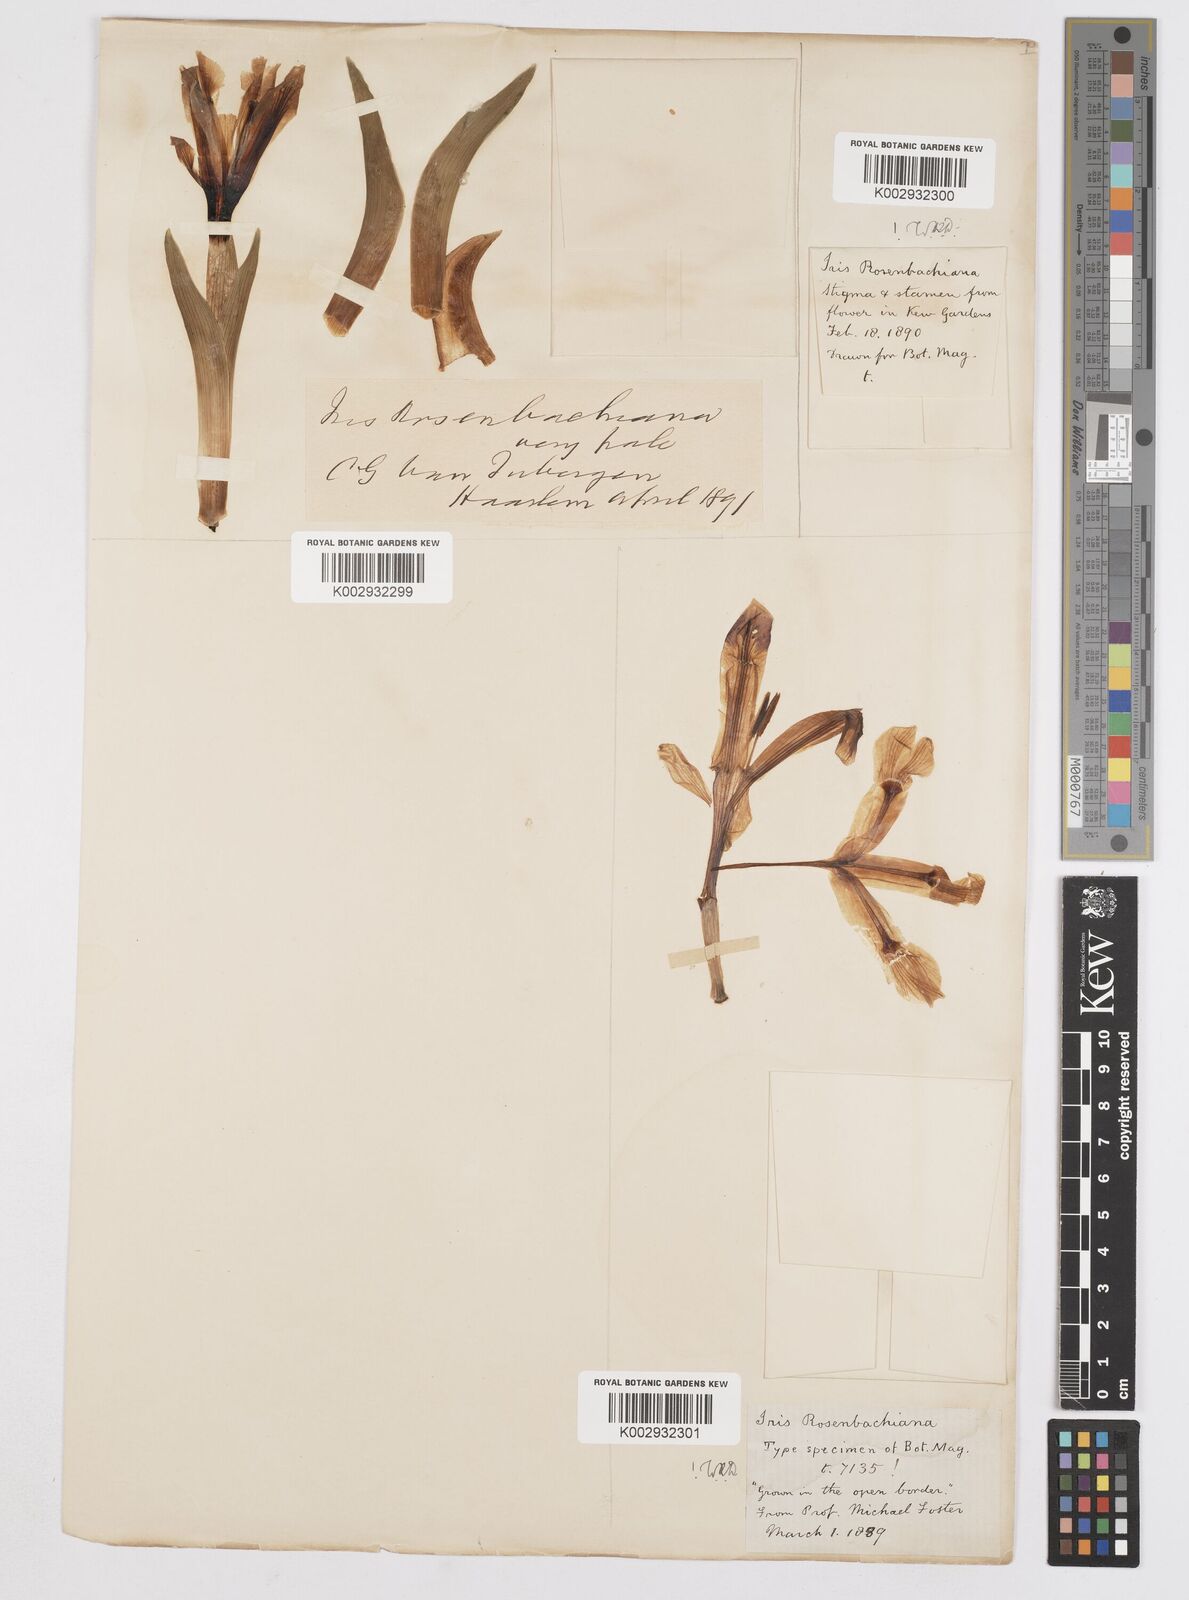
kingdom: Plantae
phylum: Tracheophyta
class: Liliopsida
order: Asparagales
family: Iridaceae
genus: Iris
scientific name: Iris rosenbachiana
